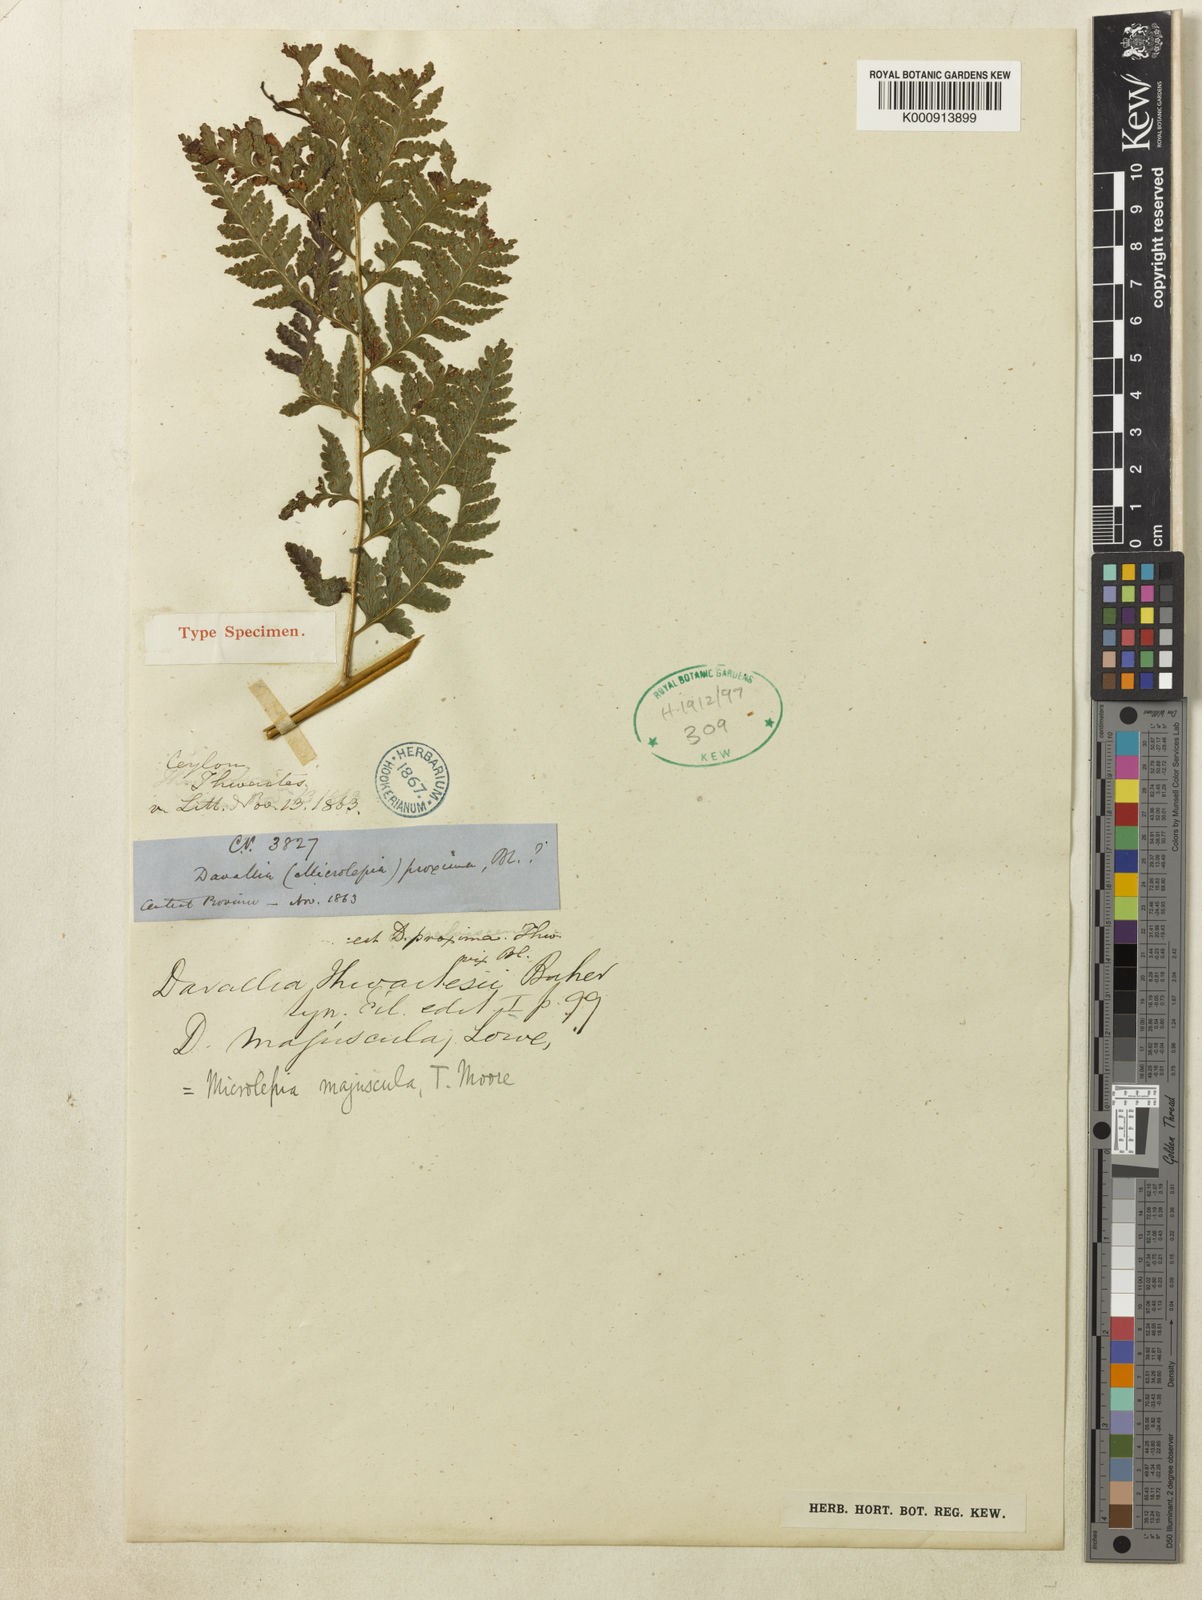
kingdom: Plantae
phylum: Tracheophyta
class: Polypodiopsida
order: Polypodiales
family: Dennstaedtiaceae
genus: Microlepia
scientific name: Microlepia majuscula
